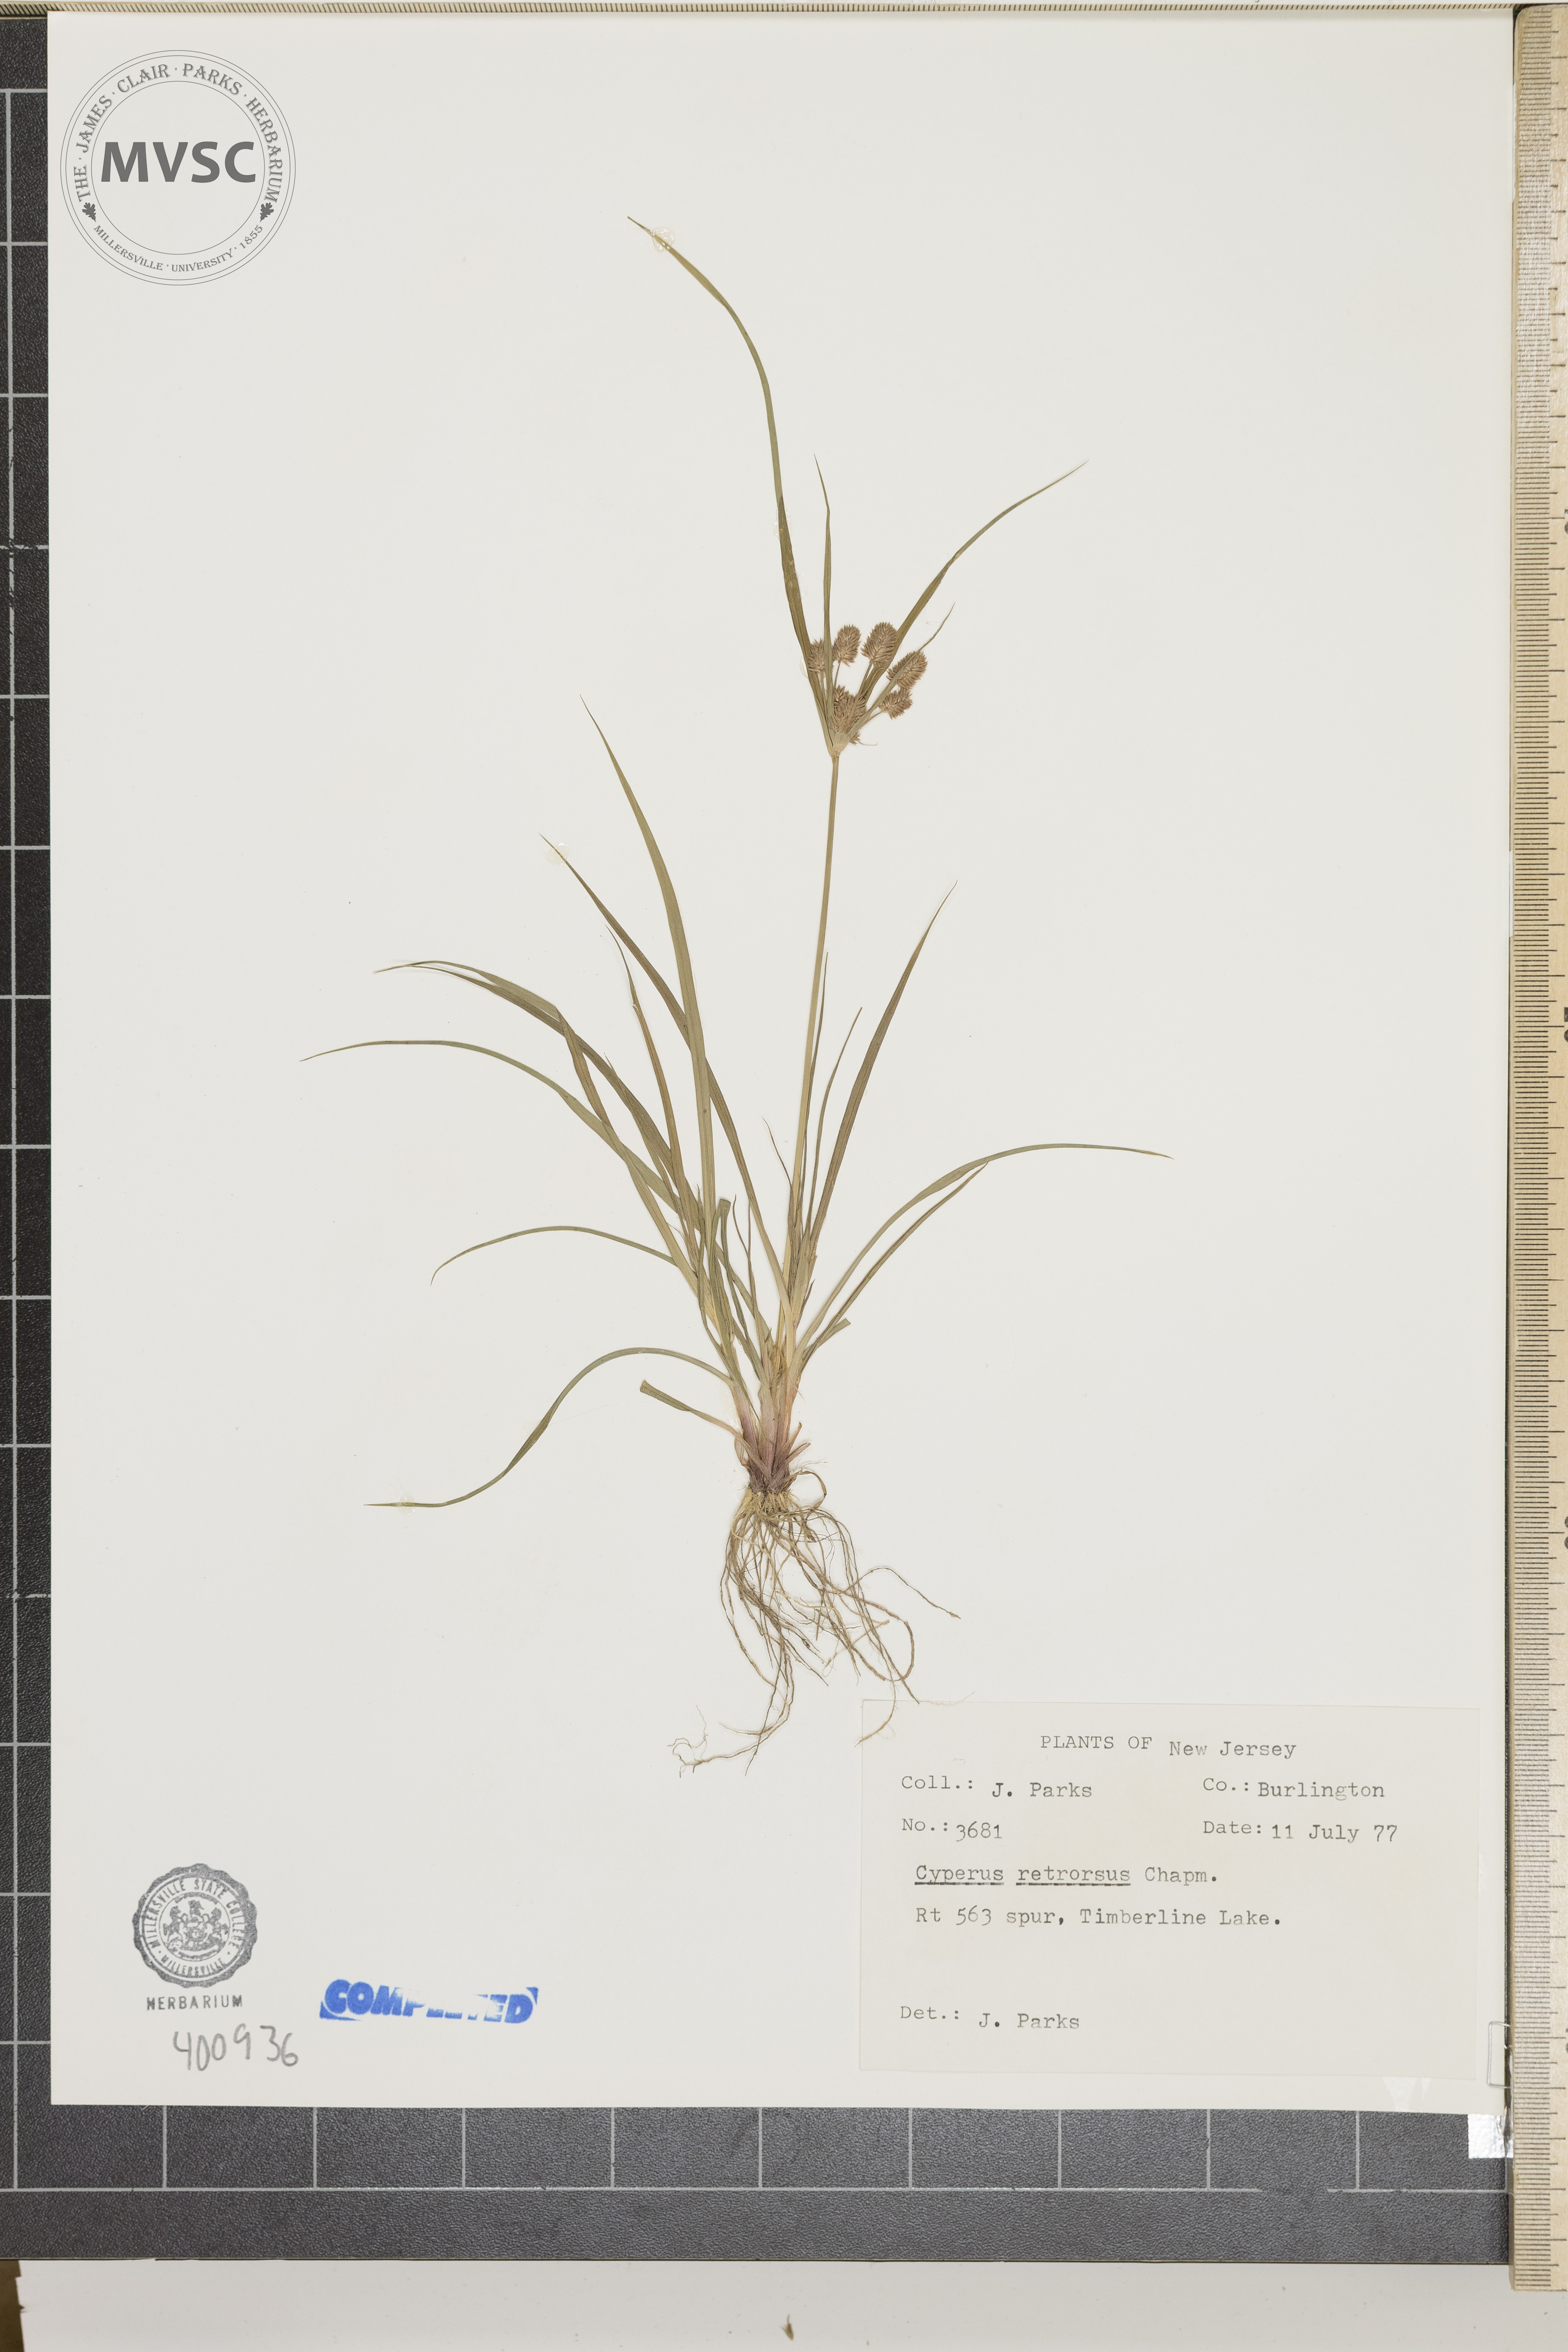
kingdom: Plantae
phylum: Tracheophyta
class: Liliopsida
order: Poales
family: Cyperaceae
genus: Cyperus
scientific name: Cyperus retrorsus
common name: sedge
